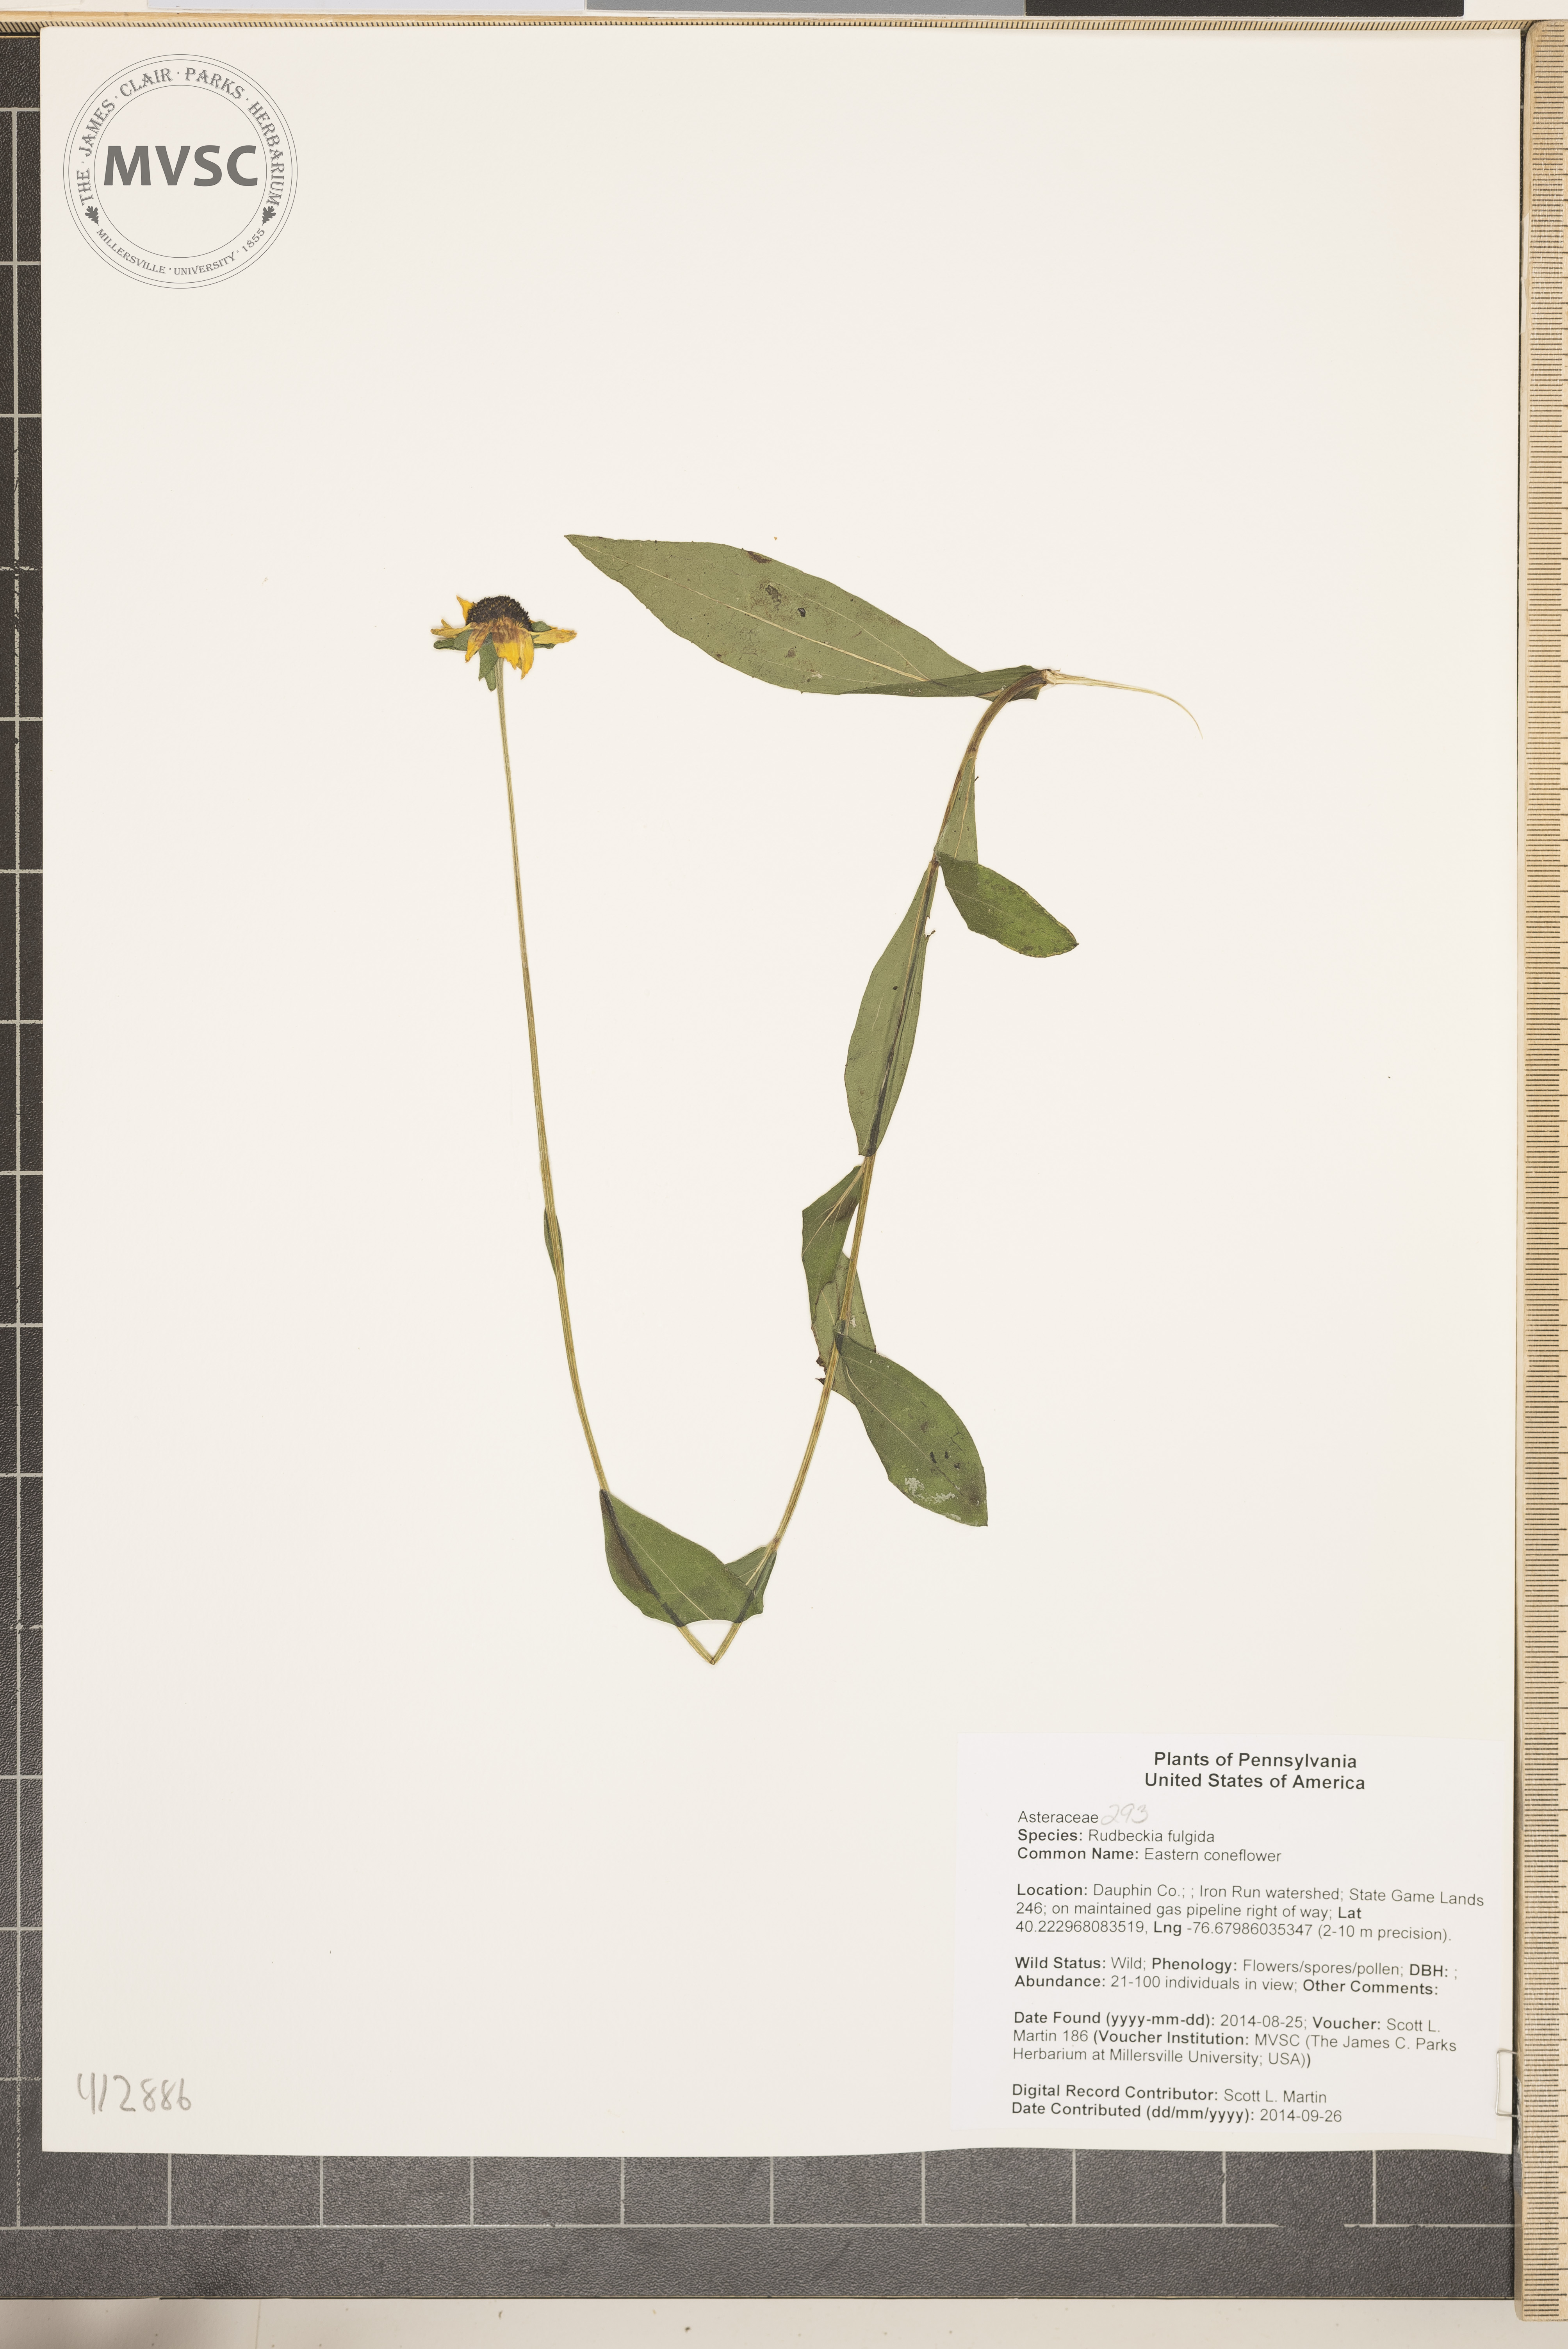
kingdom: Plantae
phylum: Tracheophyta
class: Magnoliopsida
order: Asterales
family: Asteraceae
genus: Rudbeckia
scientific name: Rudbeckia fulgida
